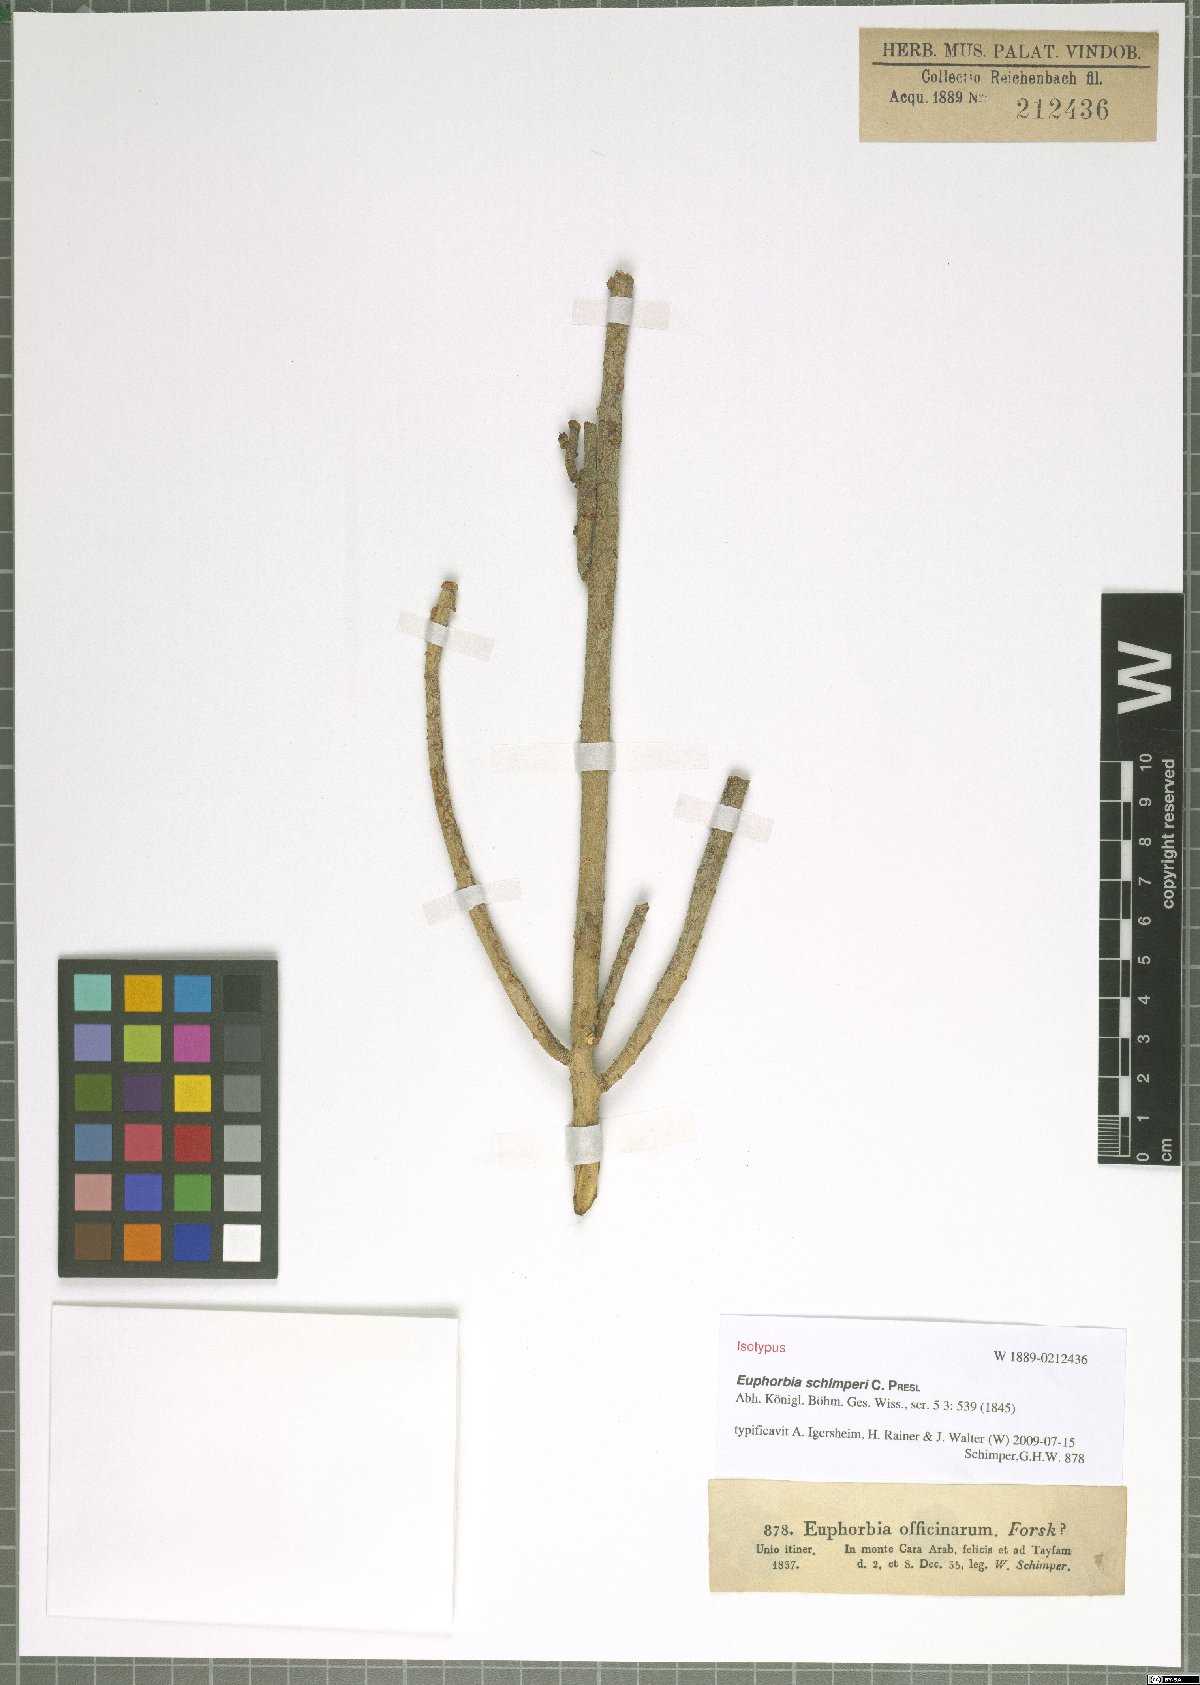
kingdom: Plantae
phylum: Tracheophyta
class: Magnoliopsida
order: Malpighiales
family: Euphorbiaceae
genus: Euphorbia
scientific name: Euphorbia schimperi
